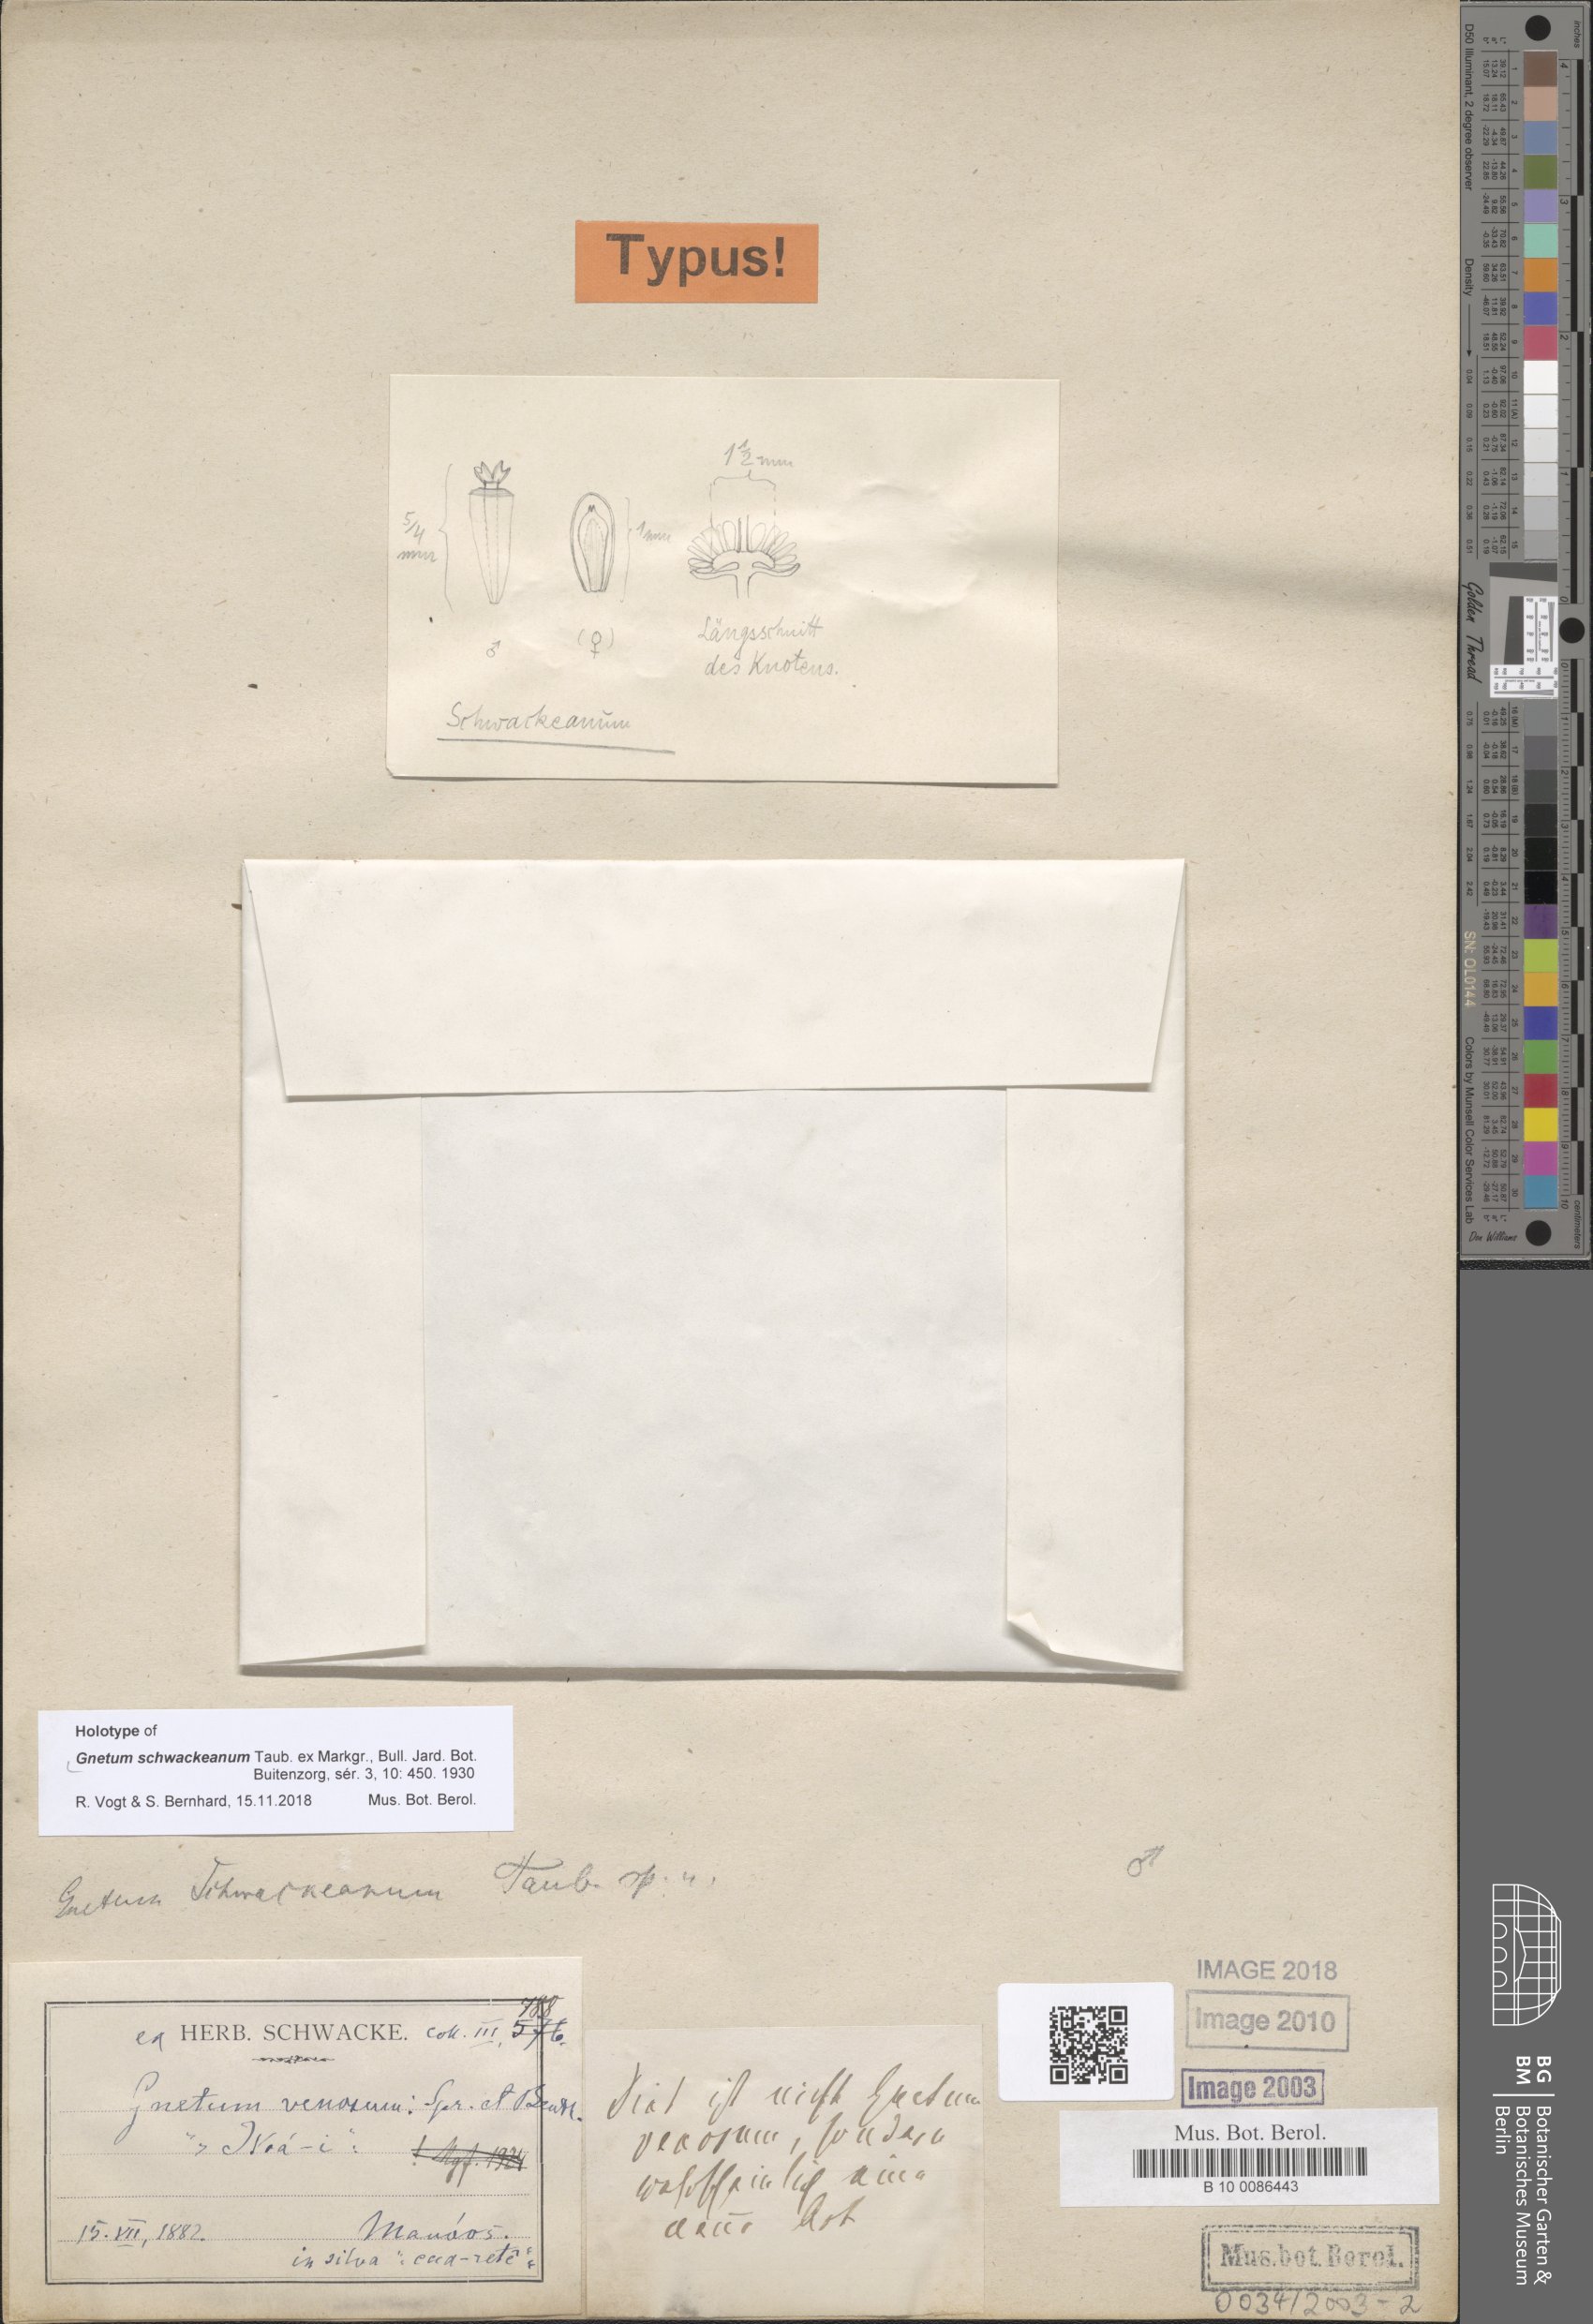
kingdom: Plantae
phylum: Tracheophyta
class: Gnetopsida
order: Gnetales
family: Gnetaceae
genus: Gnetum
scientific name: Gnetum schwackeanum
